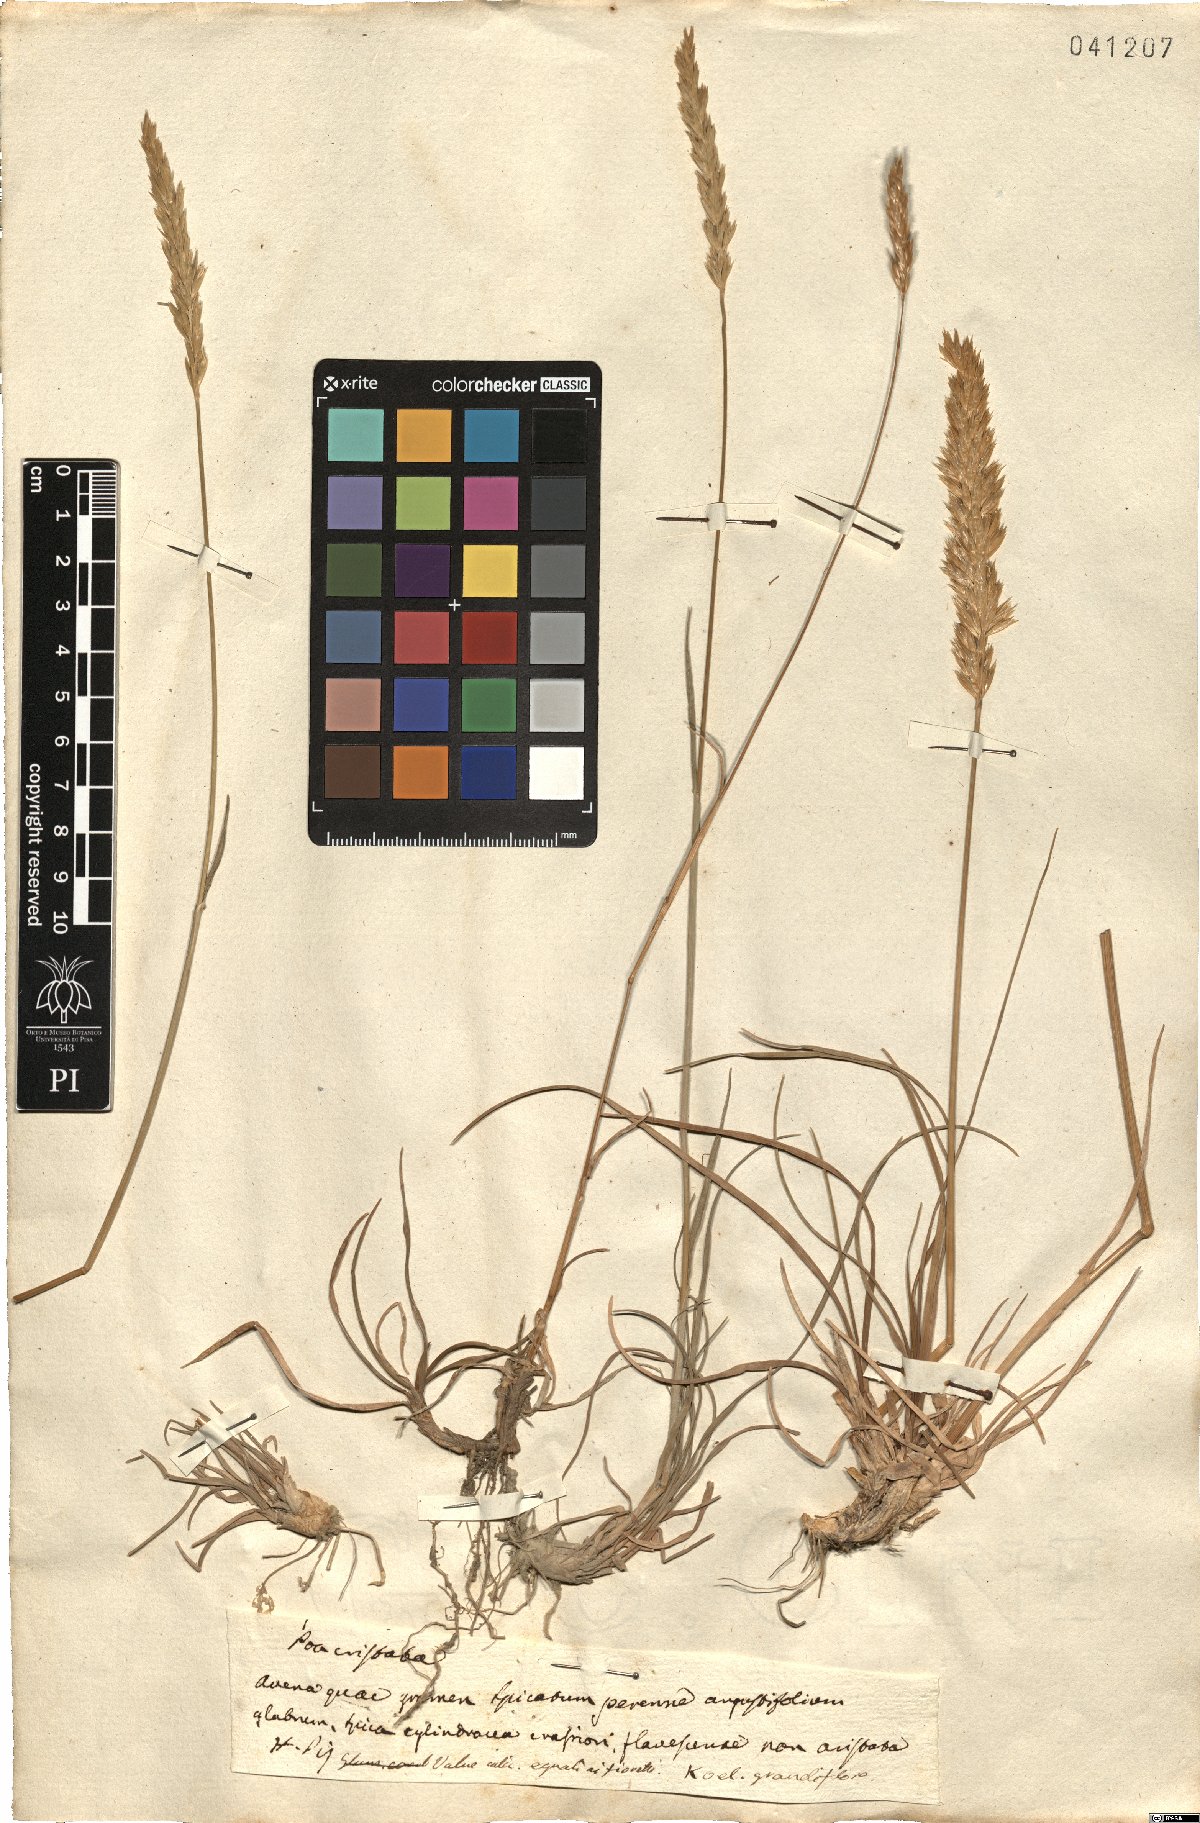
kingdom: Plantae
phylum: Tracheophyta
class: Liliopsida
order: Poales
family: Poaceae
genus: Koeleria
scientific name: Koeleria macrantha
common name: Crested hair-grass
